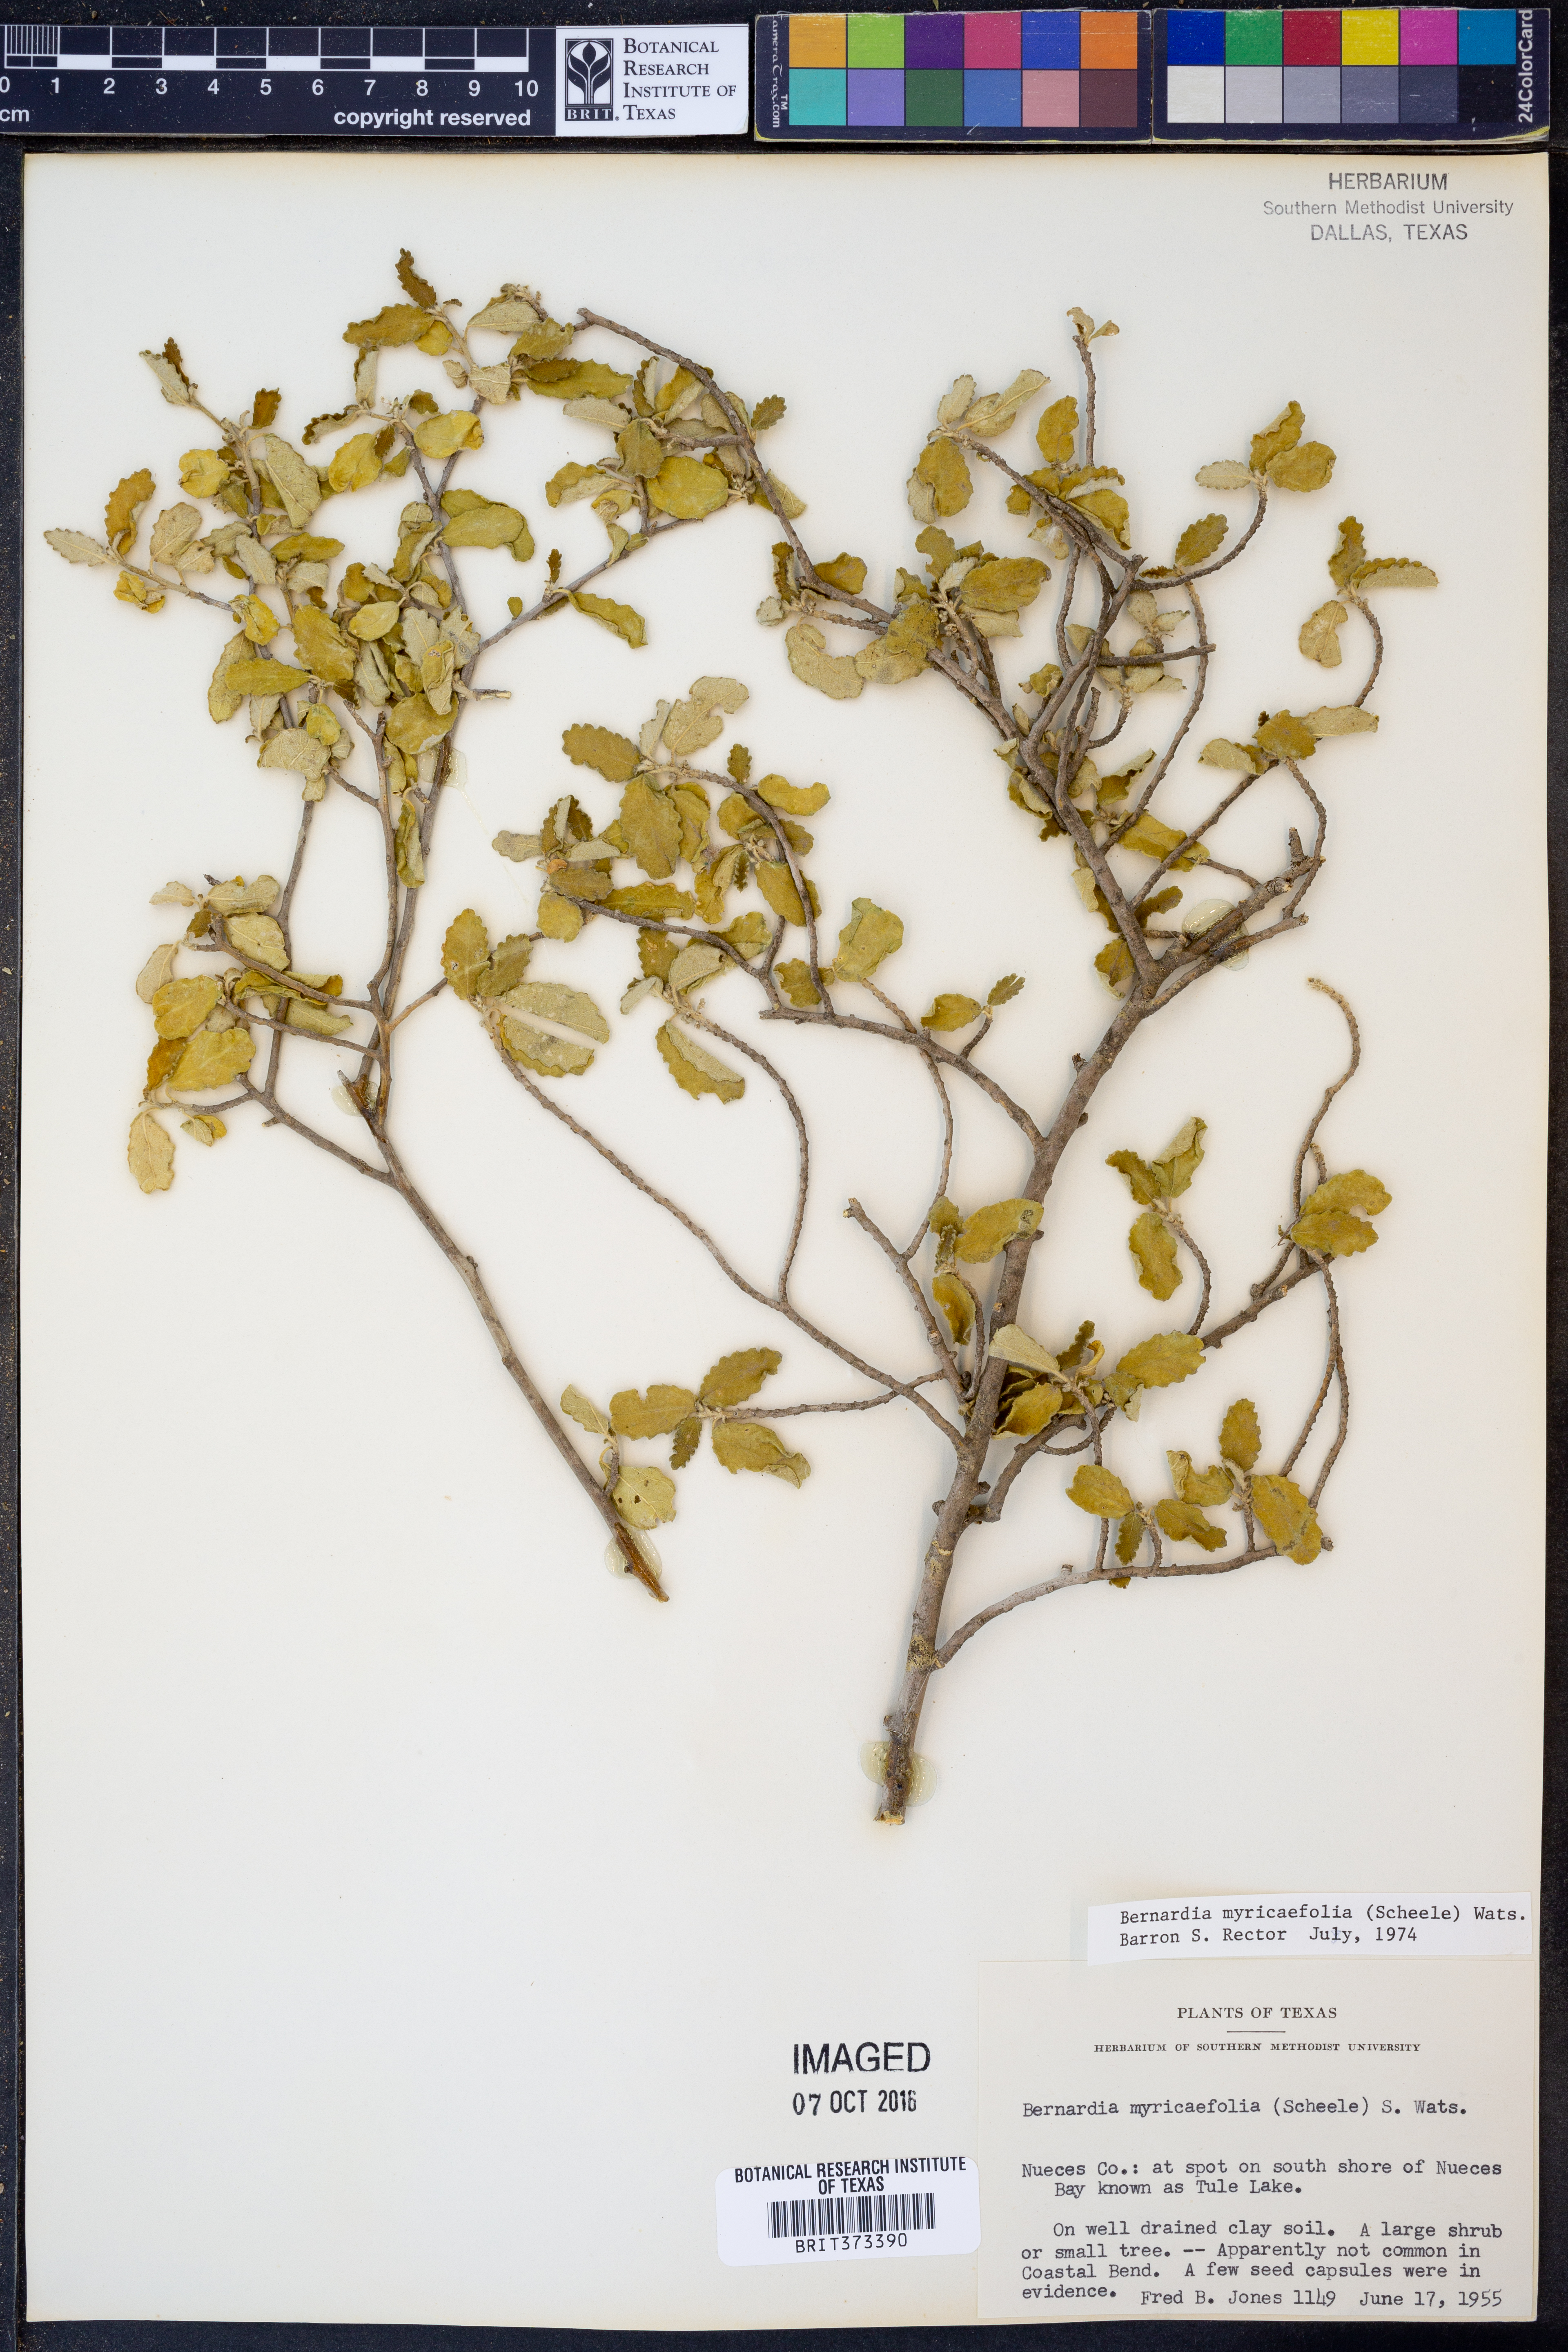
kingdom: Plantae
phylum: Tracheophyta
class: Magnoliopsida
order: Malpighiales
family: Euphorbiaceae
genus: Bernardia
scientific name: Bernardia myricifolia
